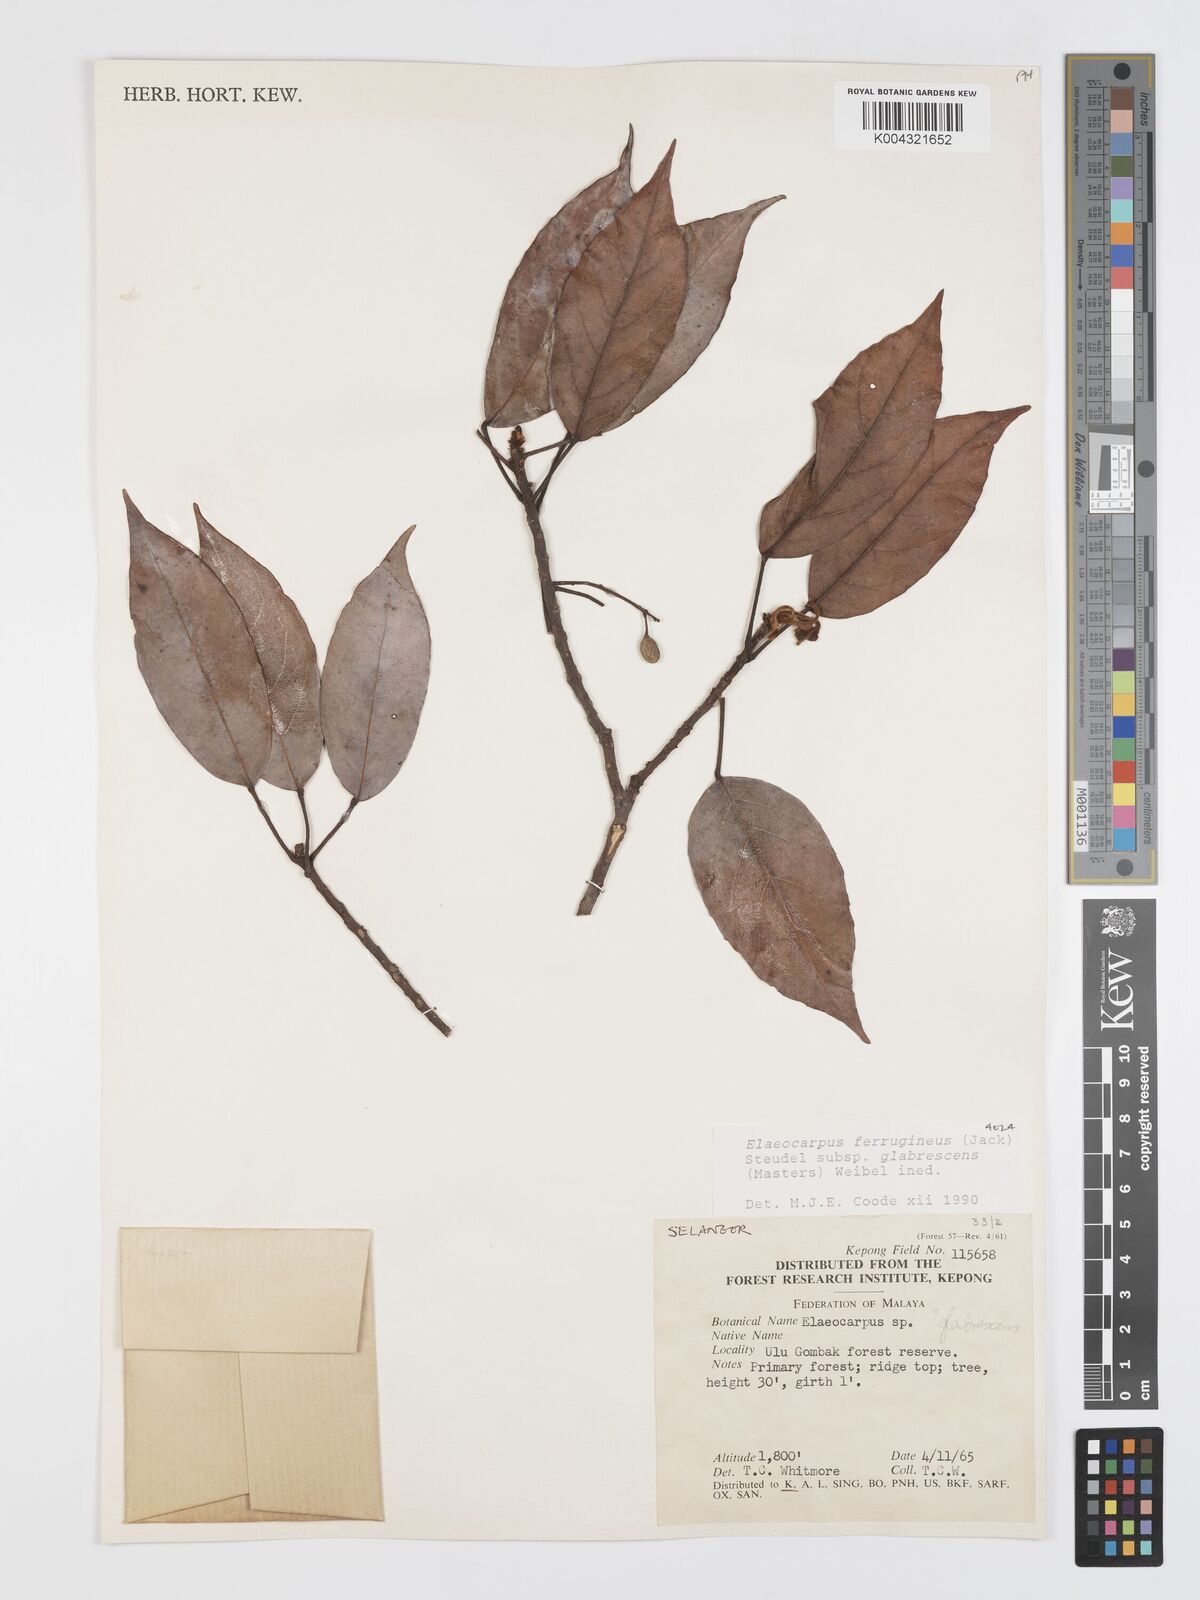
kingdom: Plantae
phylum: Tracheophyta
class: Magnoliopsida
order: Oxalidales
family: Elaeocarpaceae
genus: Elaeocarpus
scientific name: Elaeocarpus ferrugineus
